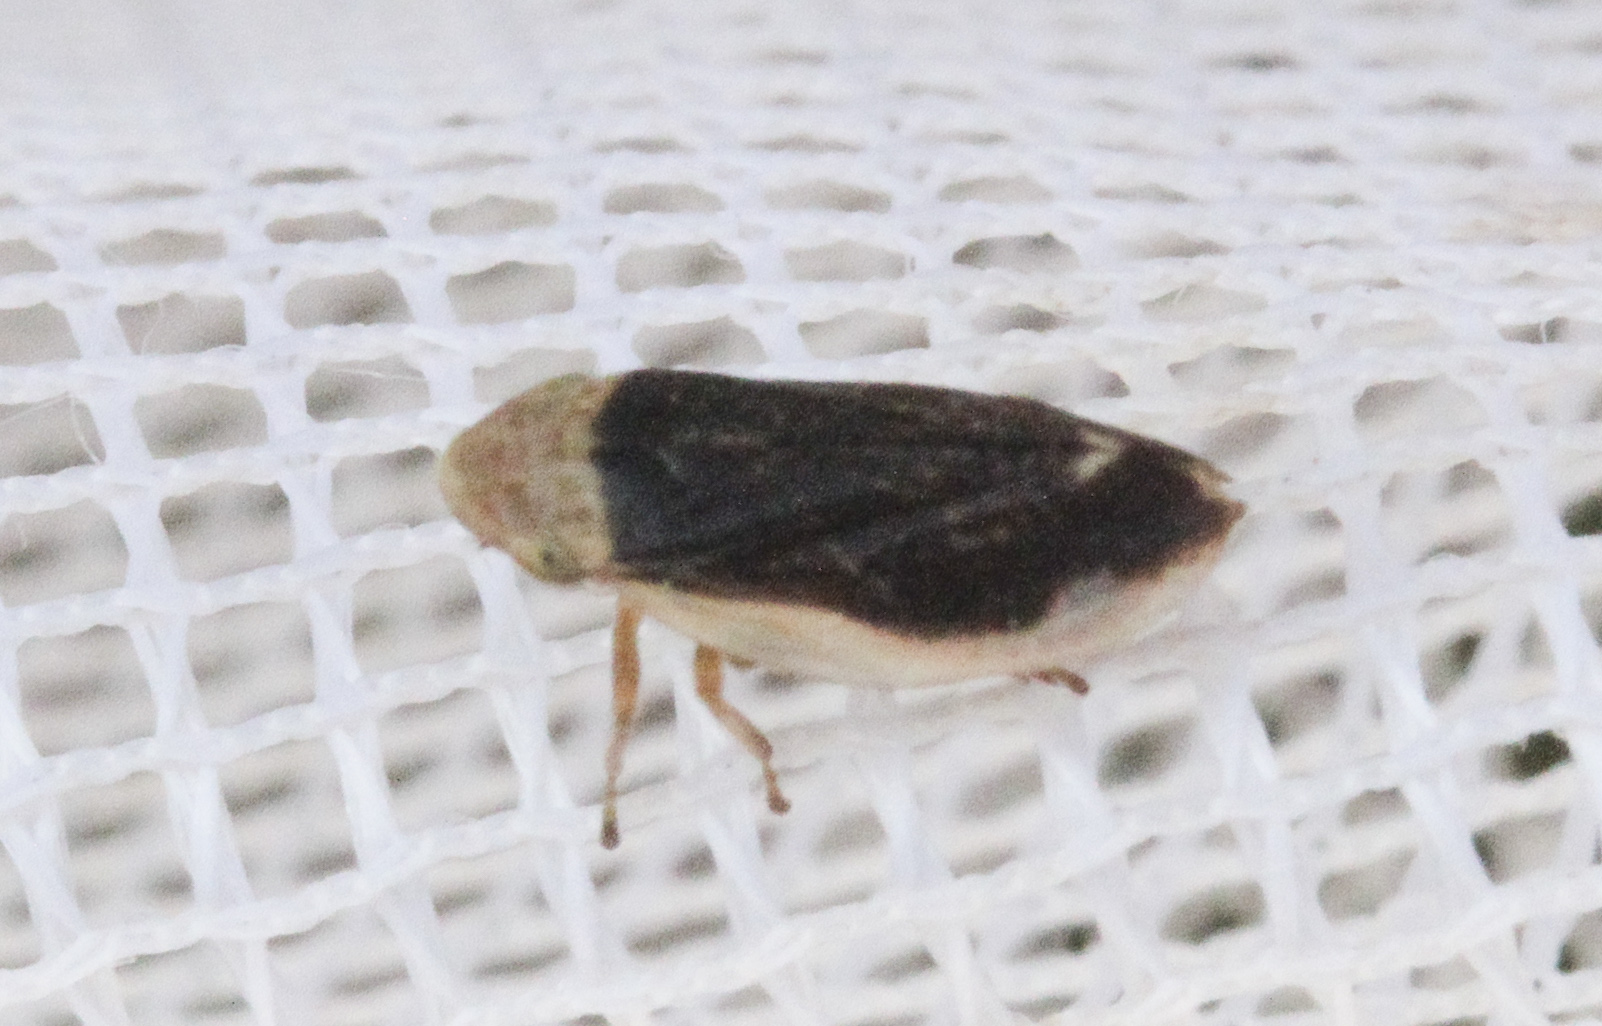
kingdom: Animalia
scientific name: Animalia
